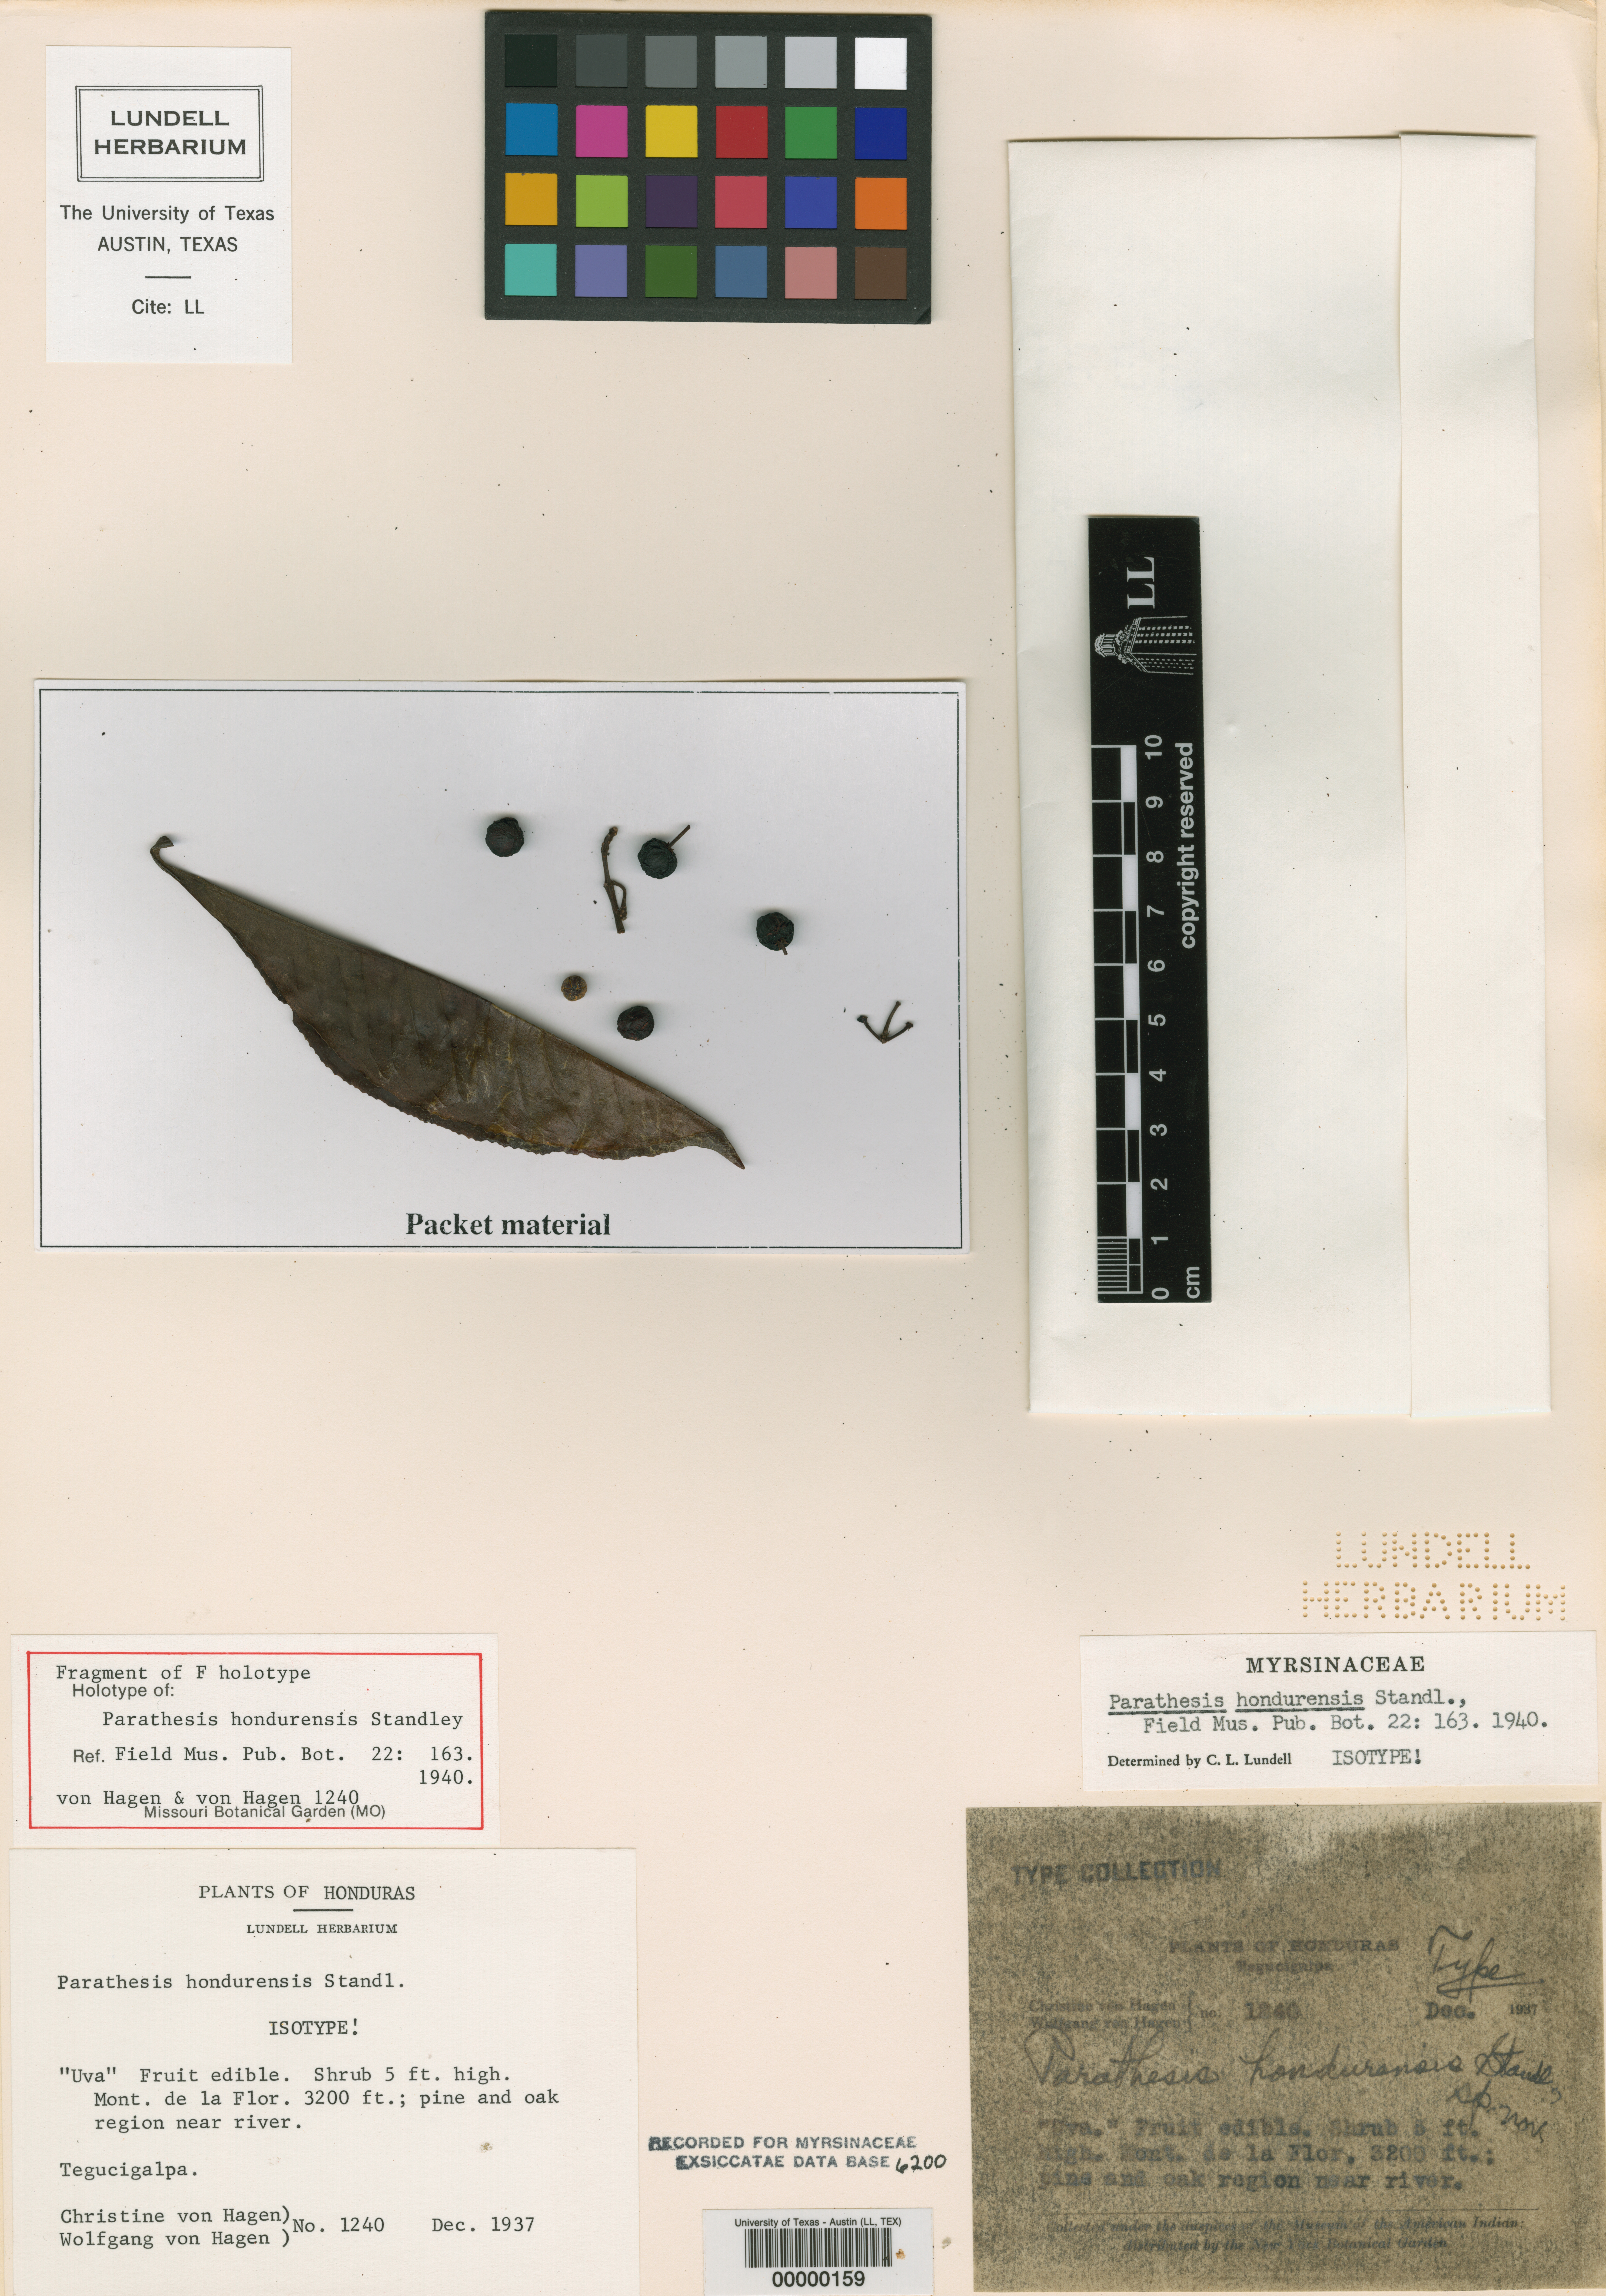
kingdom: Plantae
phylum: Tracheophyta
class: Magnoliopsida
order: Ericales
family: Primulaceae
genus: Parathesis
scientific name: Parathesis hondurensis
